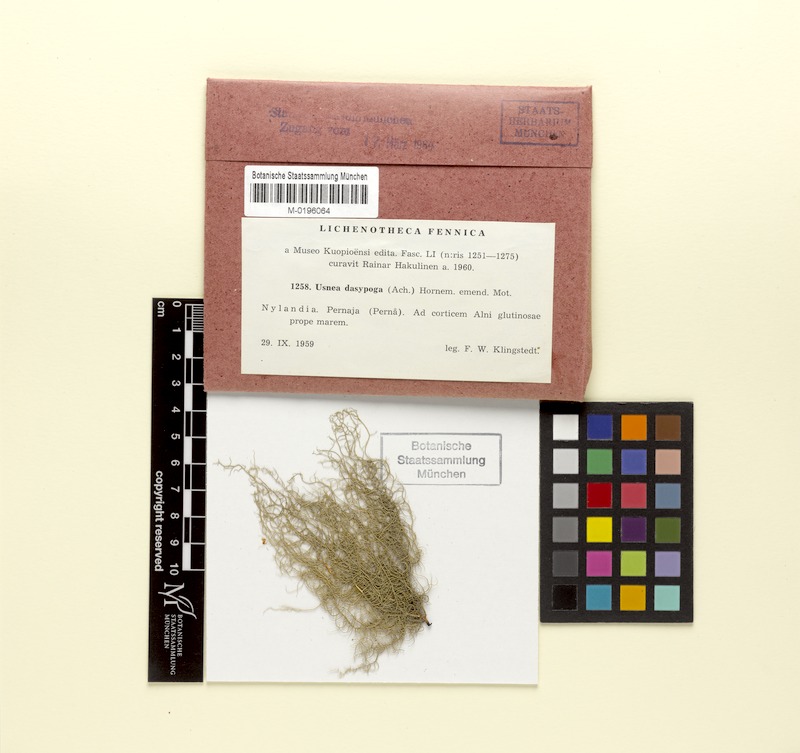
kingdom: Fungi
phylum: Ascomycota
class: Lecanoromycetes
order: Lecanorales
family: Parmeliaceae
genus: Usnea
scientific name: Usnea dasopoga
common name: Fishbone beard lichen
